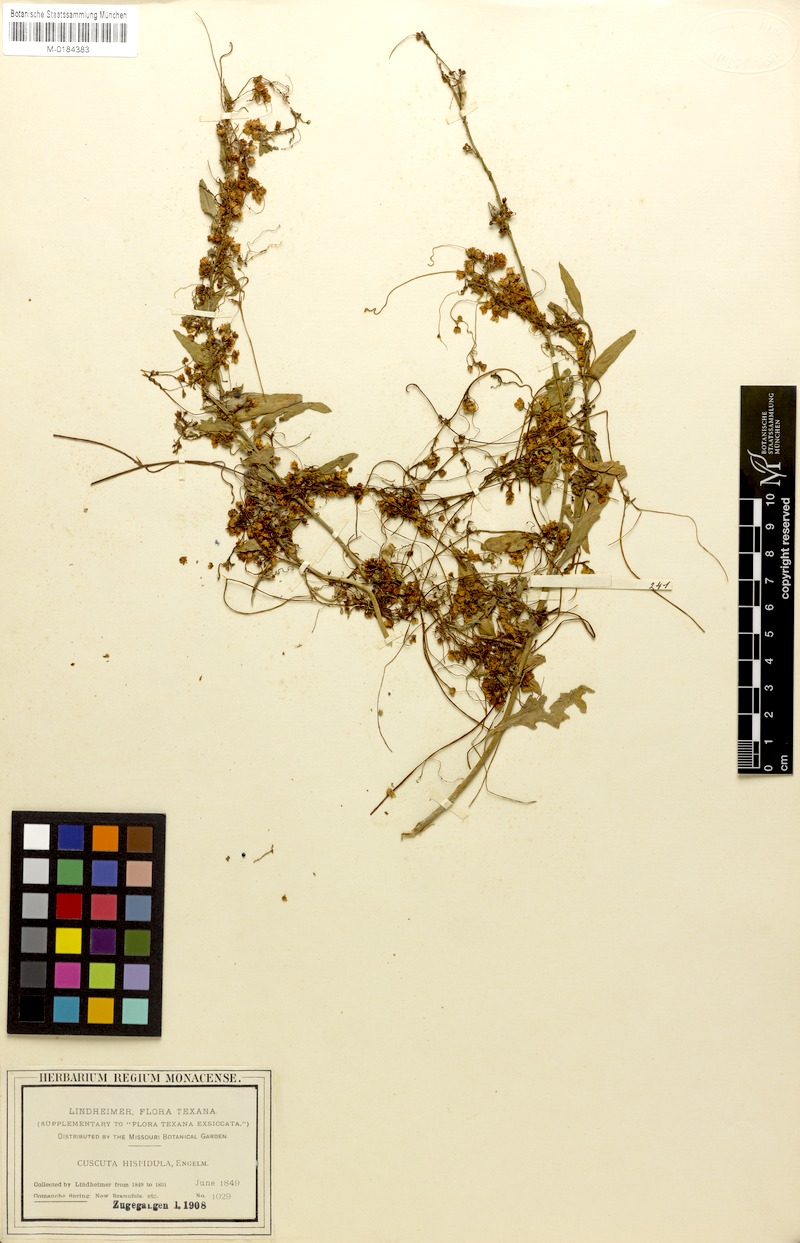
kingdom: Plantae
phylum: Tracheophyta
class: Magnoliopsida
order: Solanales
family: Convolvulaceae
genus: Cuscuta
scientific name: Cuscuta indecora
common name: Large-seed dodder
